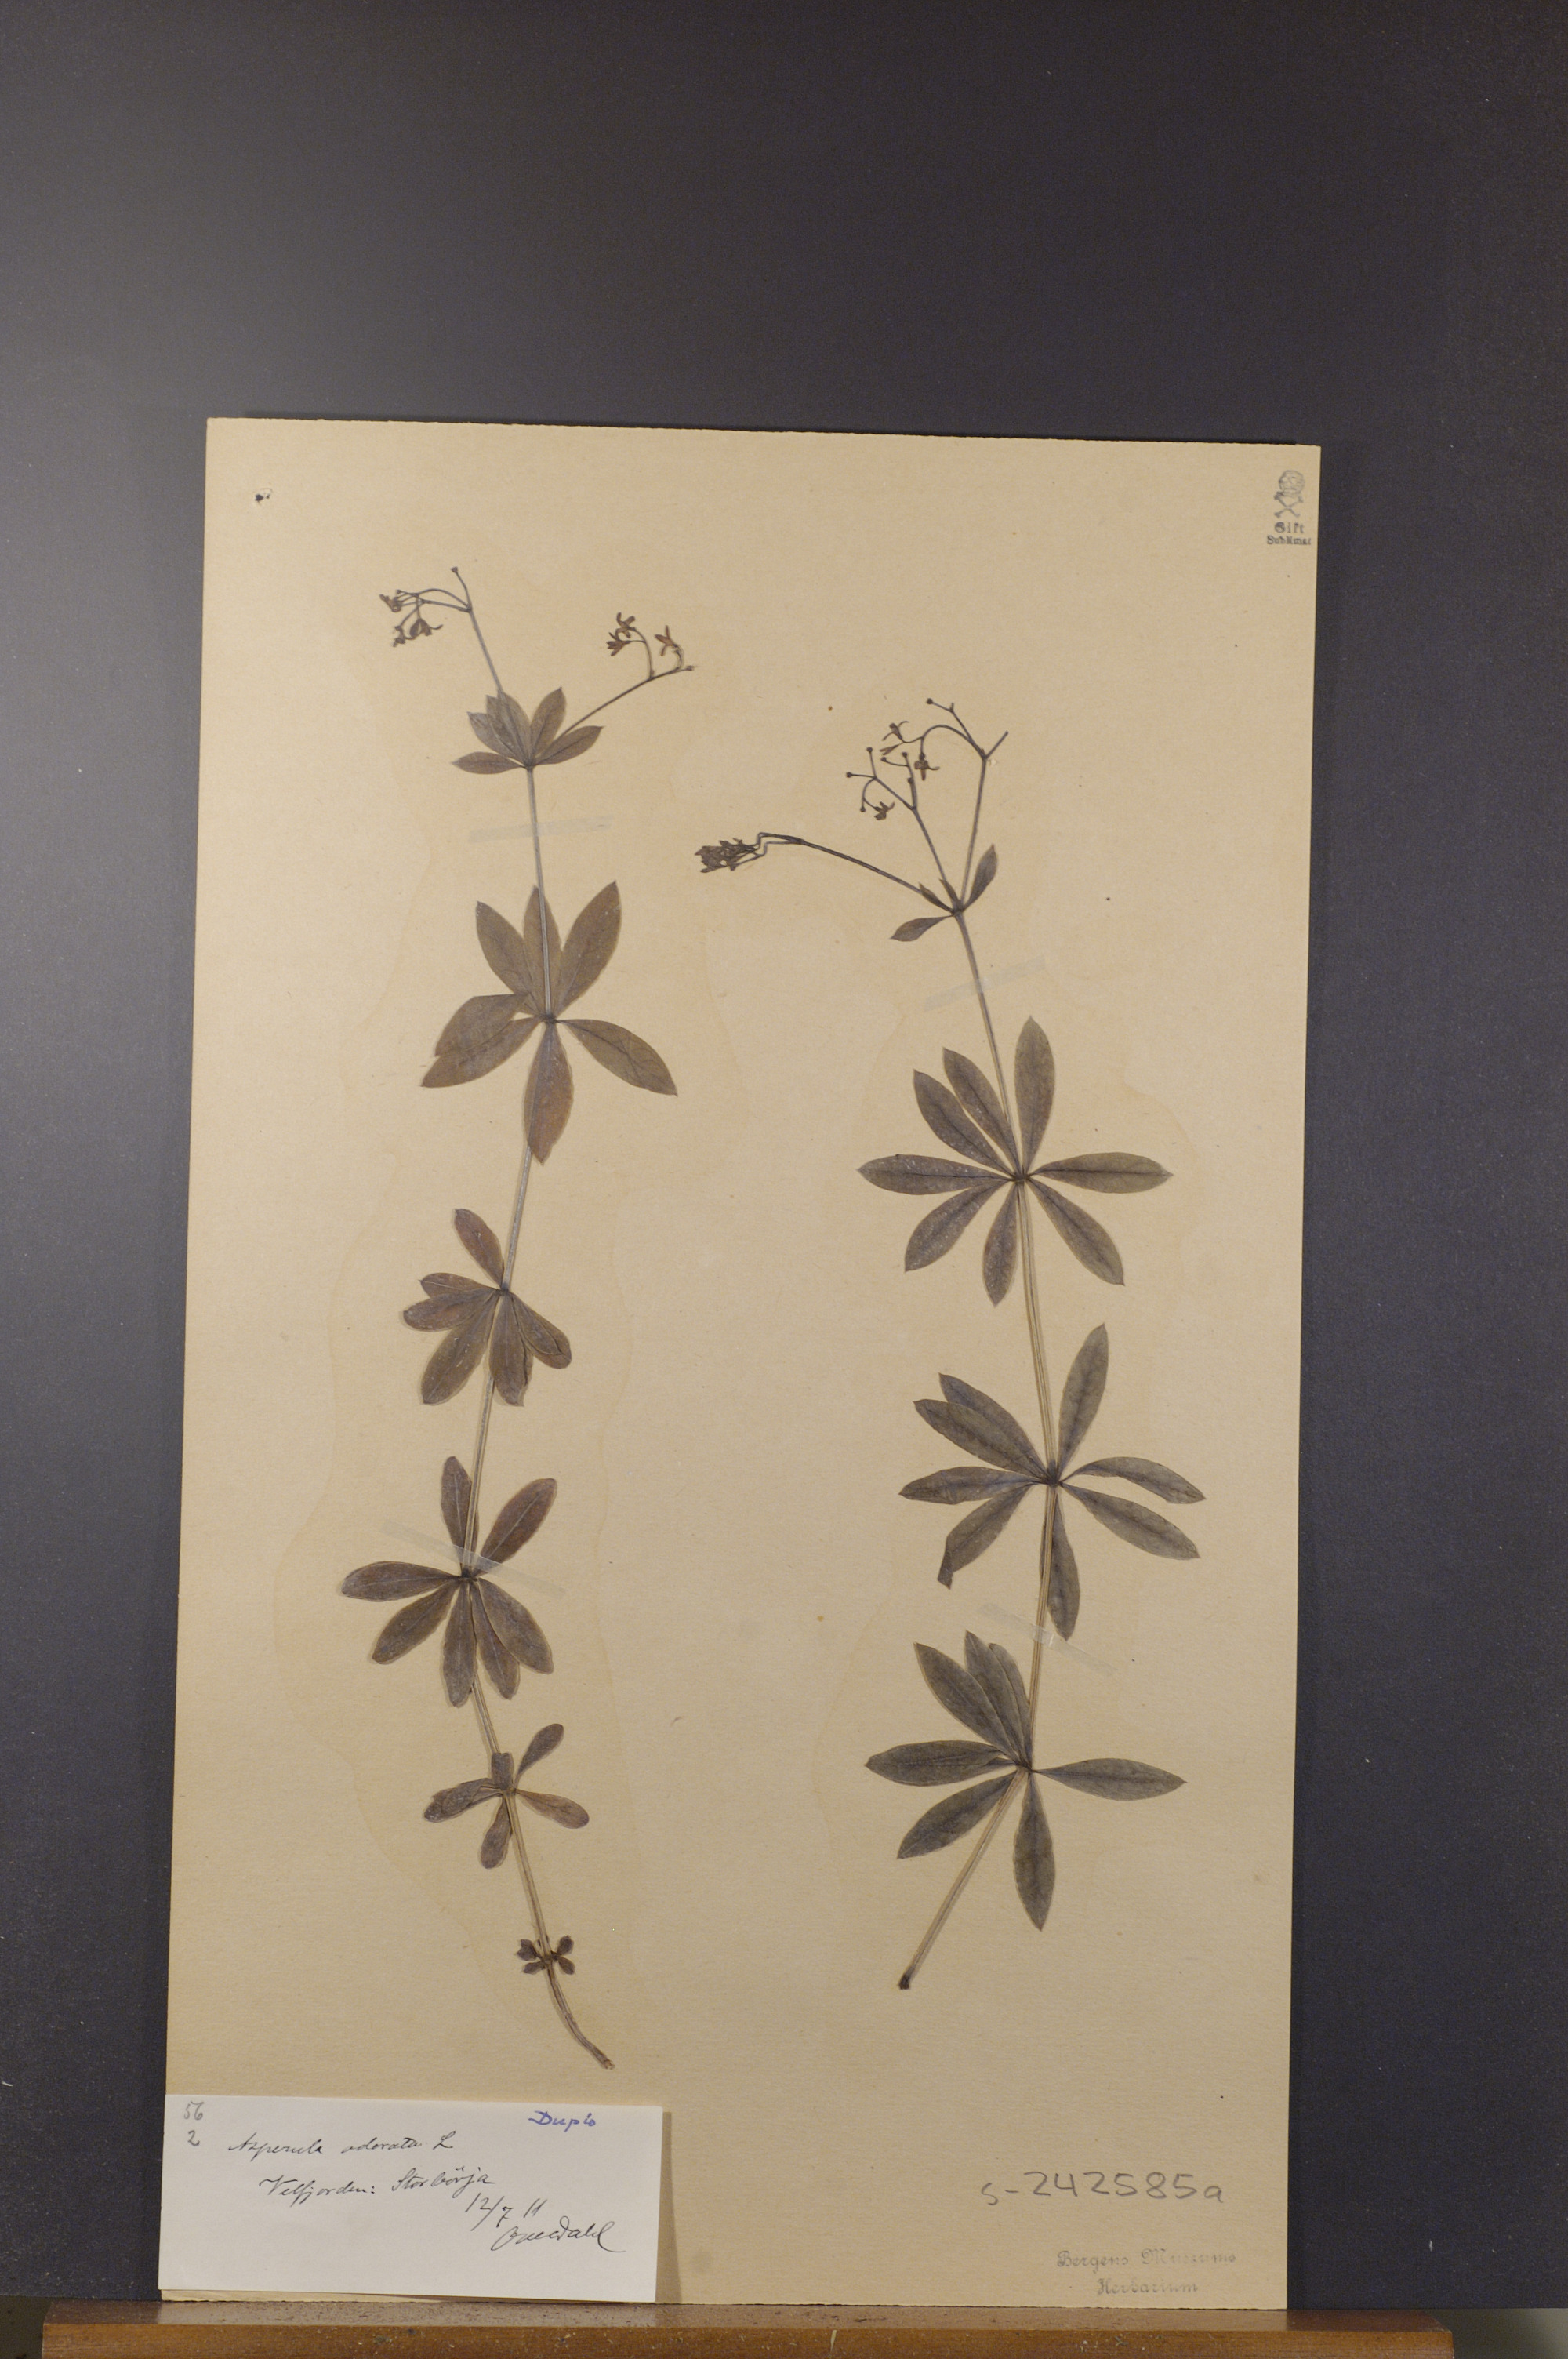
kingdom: Plantae
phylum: Tracheophyta
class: Magnoliopsida
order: Gentianales
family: Rubiaceae
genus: Galium
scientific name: Galium odoratum
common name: Sweet woodruff
